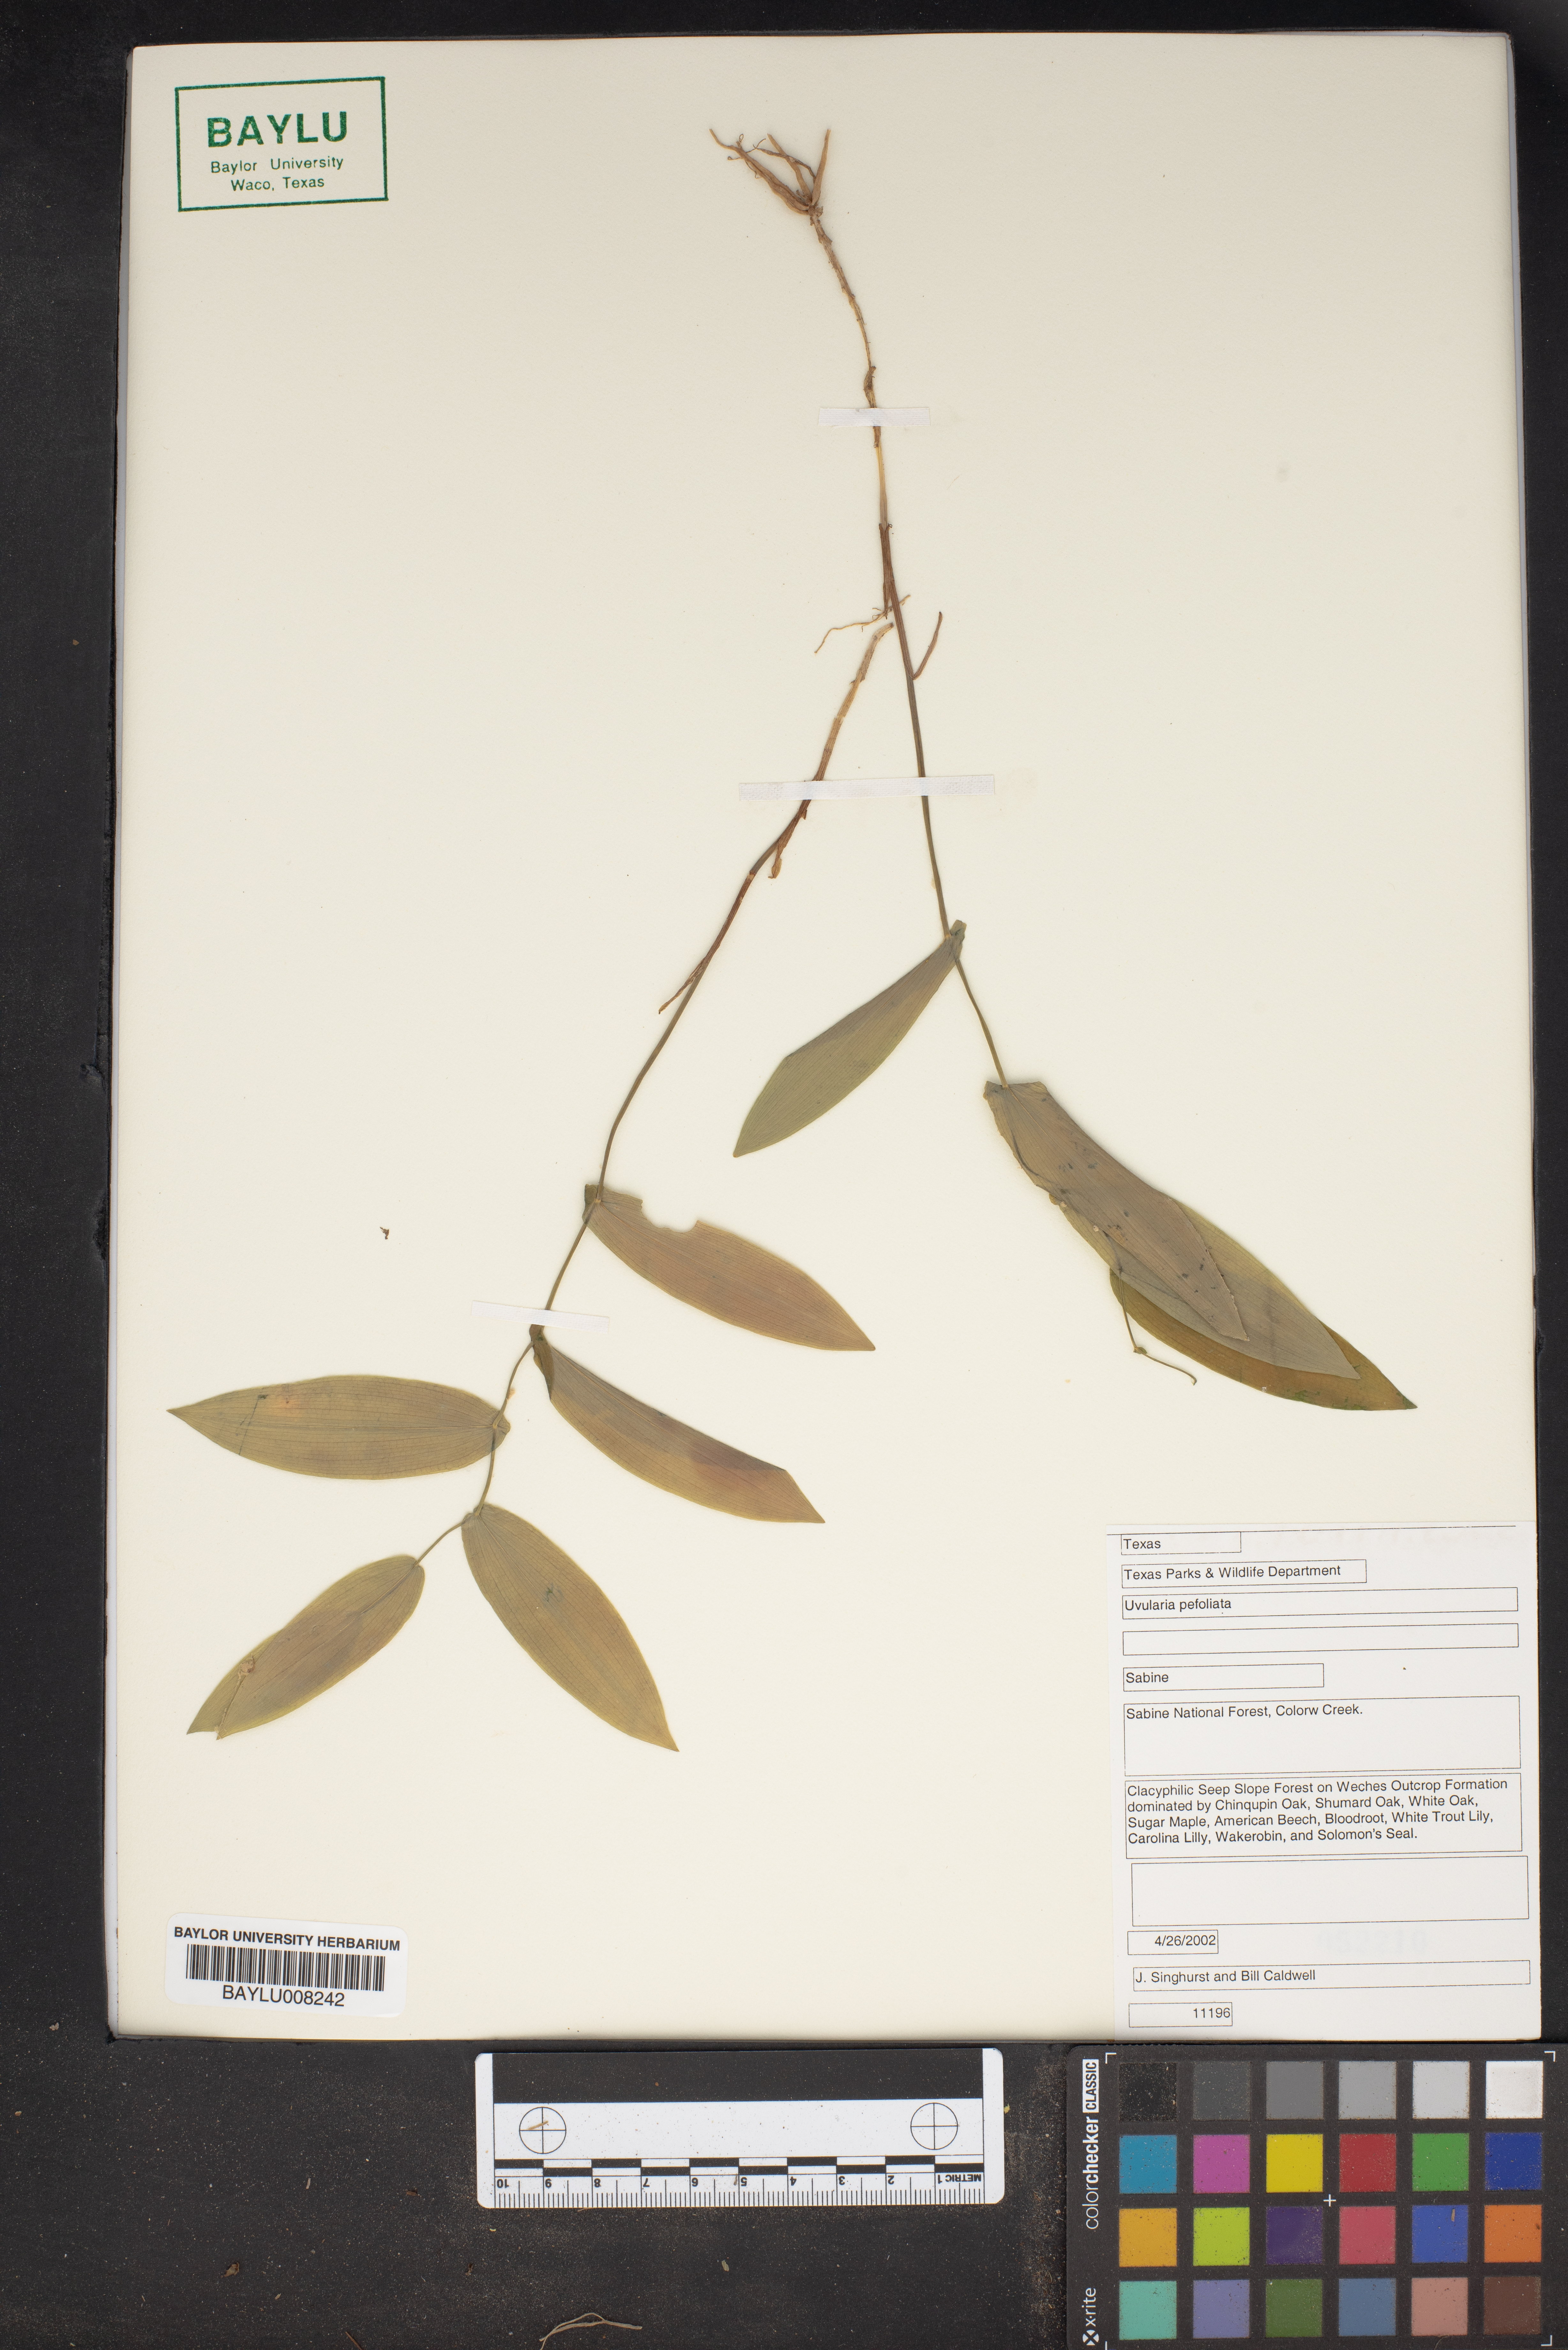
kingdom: Plantae
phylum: Tracheophyta
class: Liliopsida
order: Liliales
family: Colchicaceae
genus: Uvularia
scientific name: Uvularia perfoliata
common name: Perfoliate bellwort
